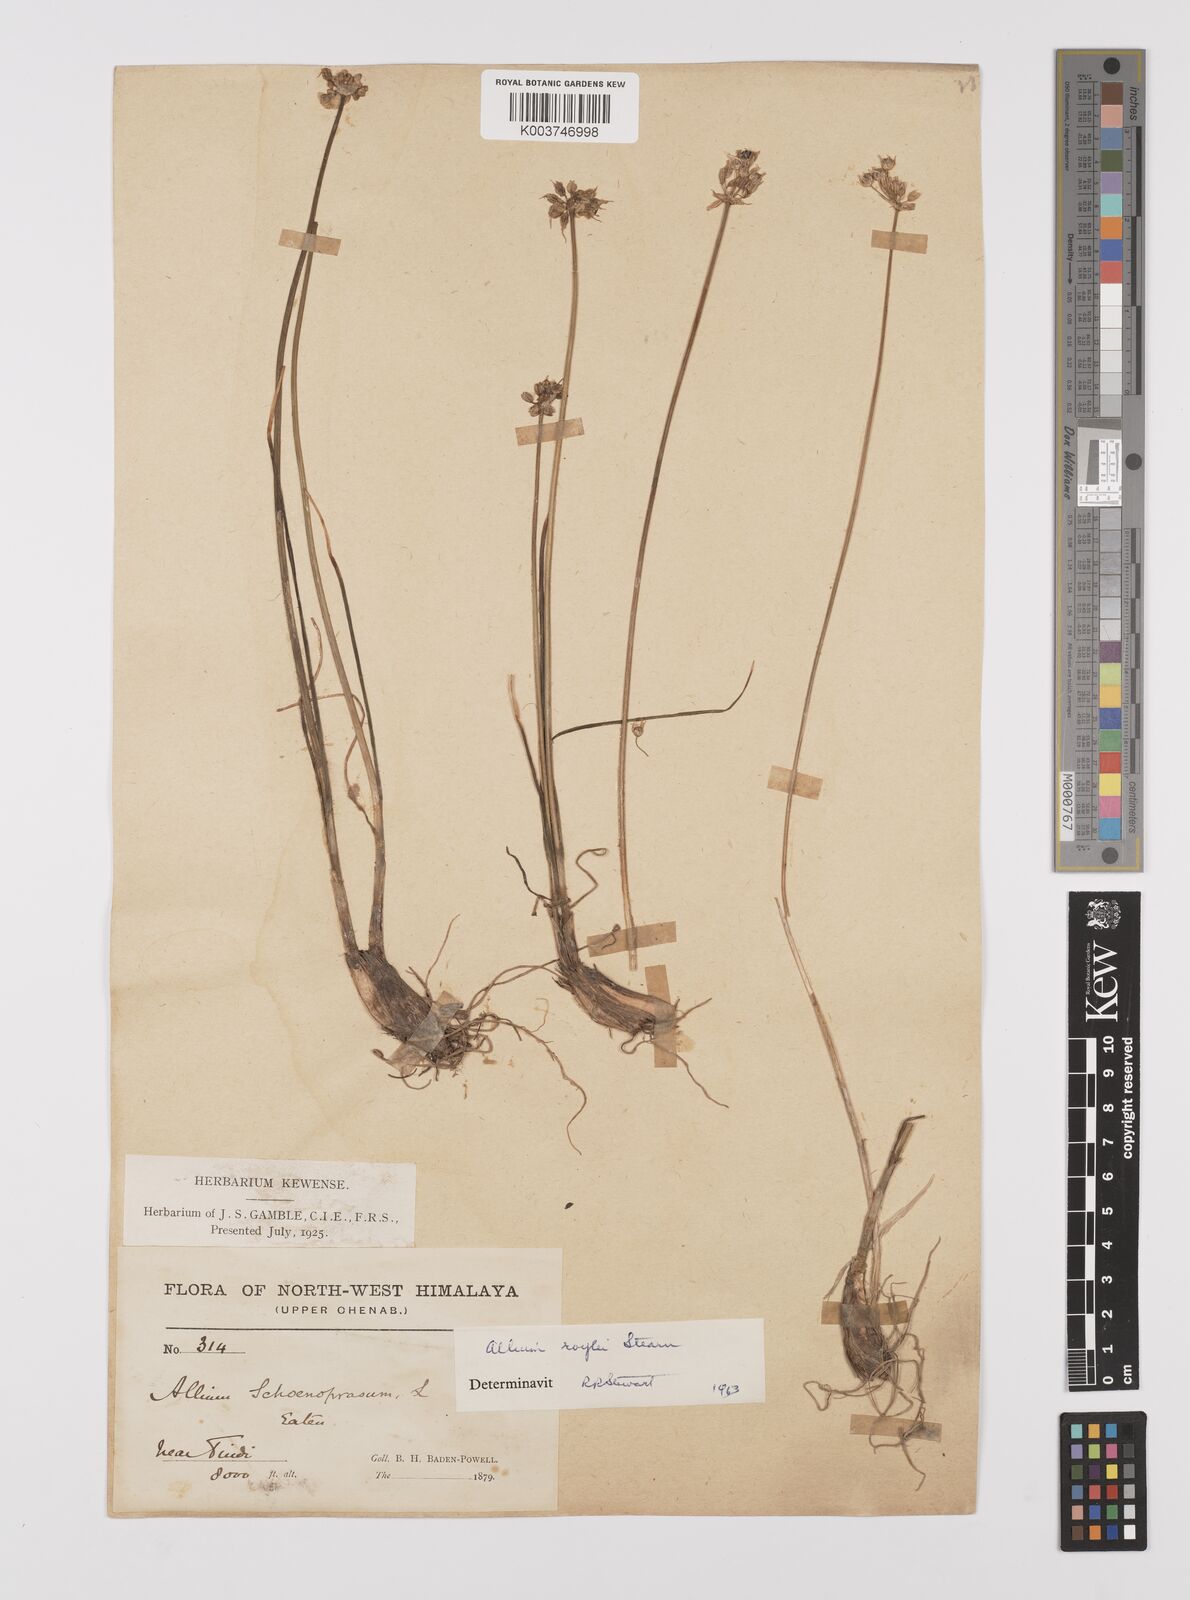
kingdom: Plantae
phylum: Tracheophyta
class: Liliopsida
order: Asparagales
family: Amaryllidaceae
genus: Allium
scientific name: Allium roylei
